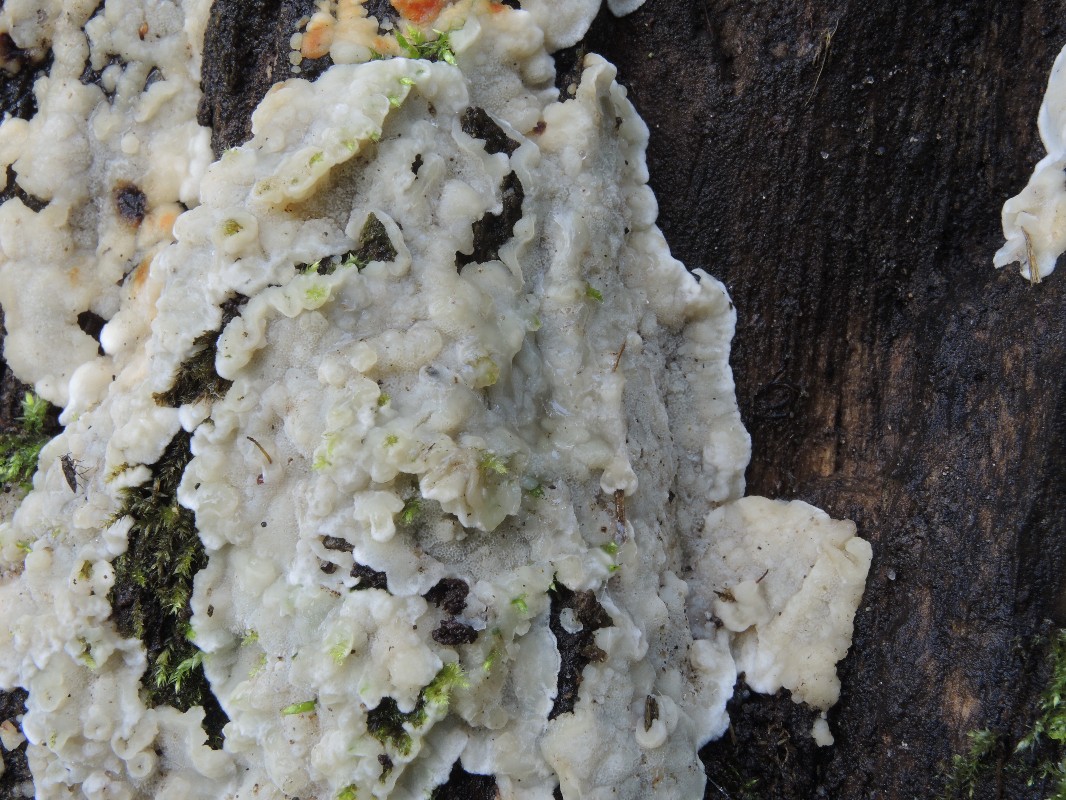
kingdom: Fungi
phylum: Basidiomycota
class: Agaricomycetes
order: Polyporales
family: Meruliaceae
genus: Physisporinus
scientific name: Physisporinus vitreus
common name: mastesvamp
